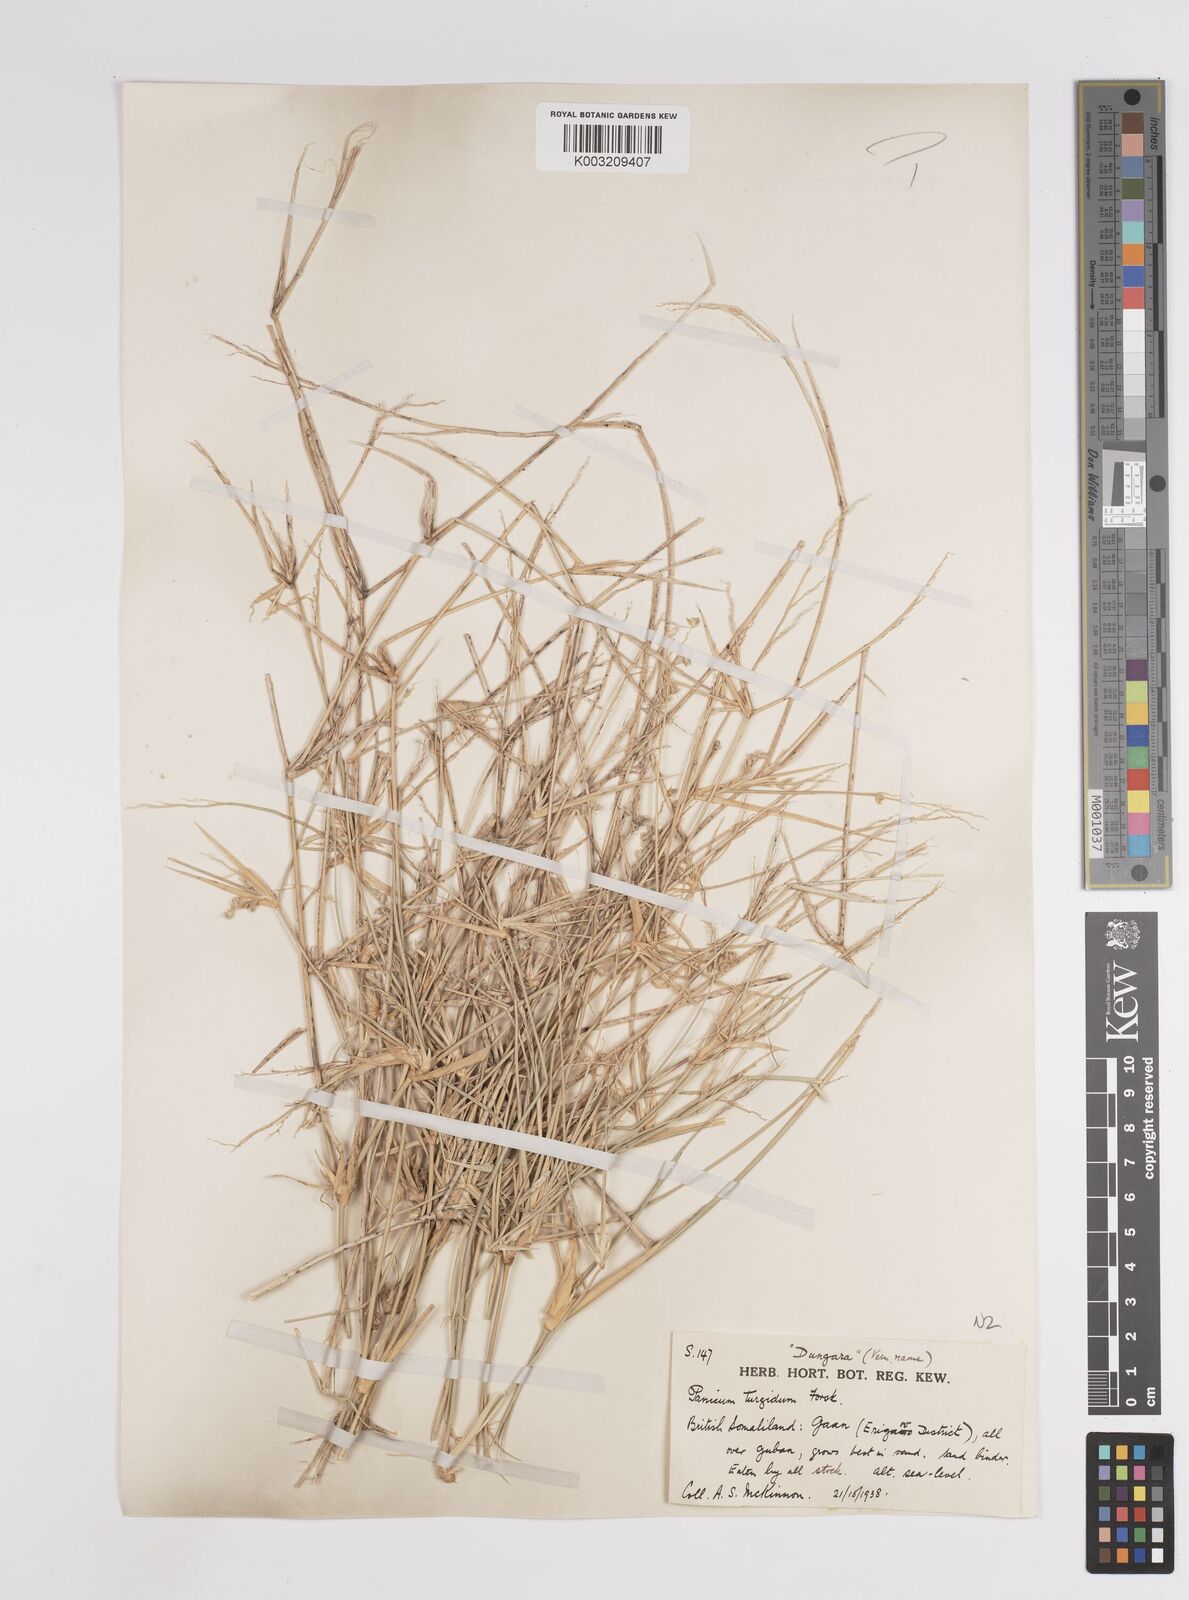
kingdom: Plantae
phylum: Tracheophyta
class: Liliopsida
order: Poales
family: Poaceae
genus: Panicum
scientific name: Panicum turgidum
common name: Desert grass
